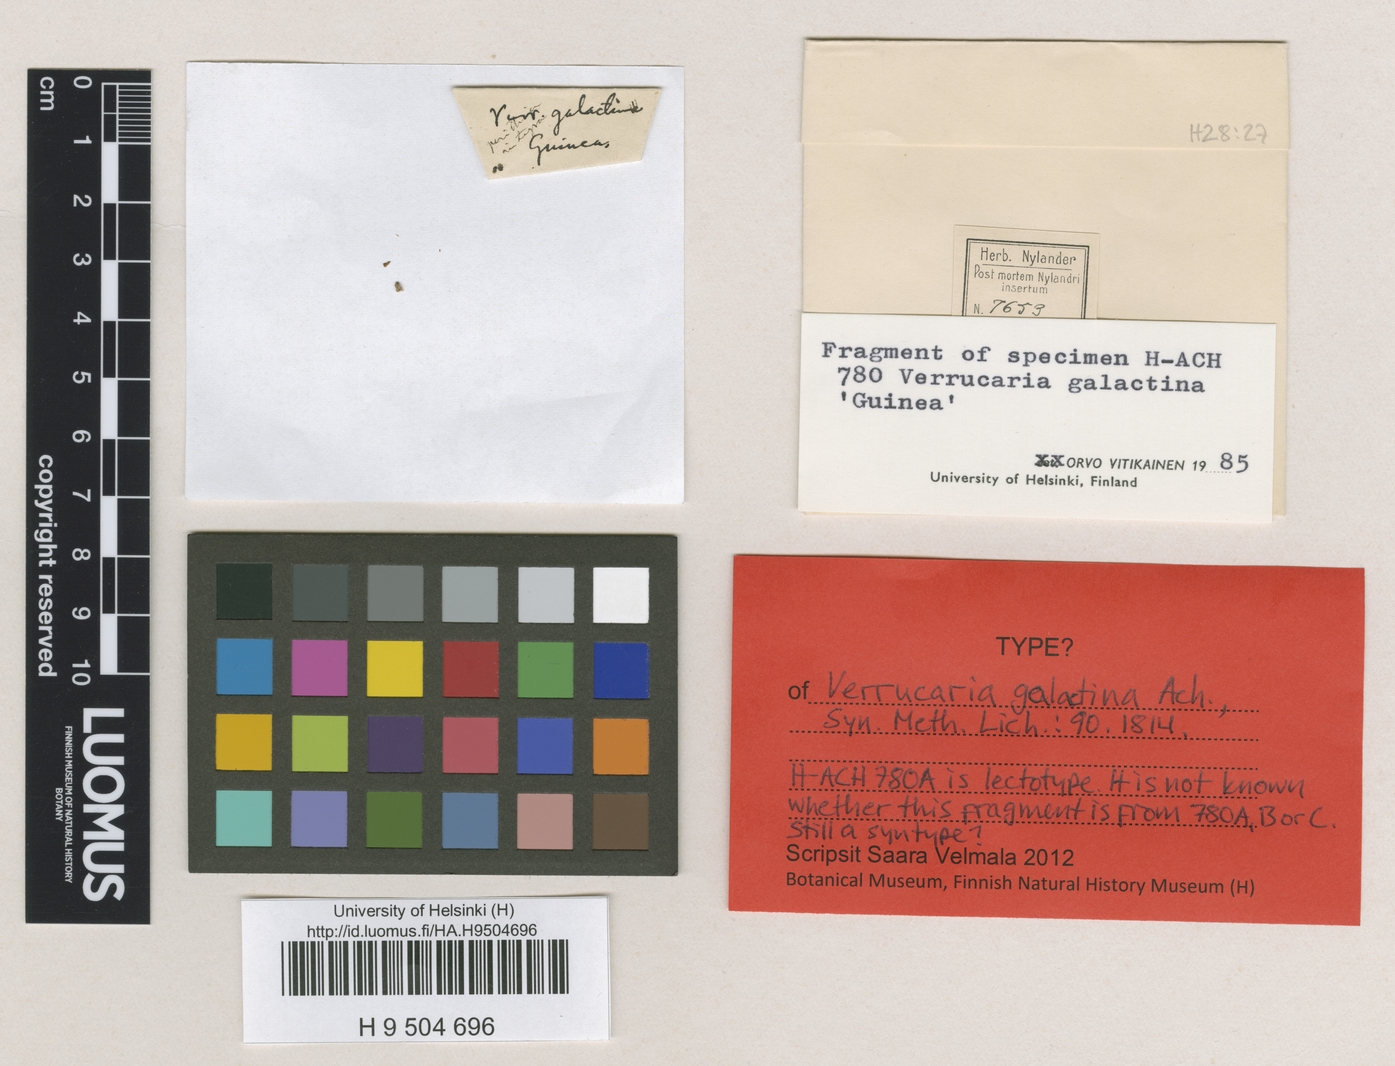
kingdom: Fungi
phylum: Ascomycota
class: Eurotiomycetes
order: Verrucariales
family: Verrucariaceae
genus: Verrucaria
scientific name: Verrucaria galactina
